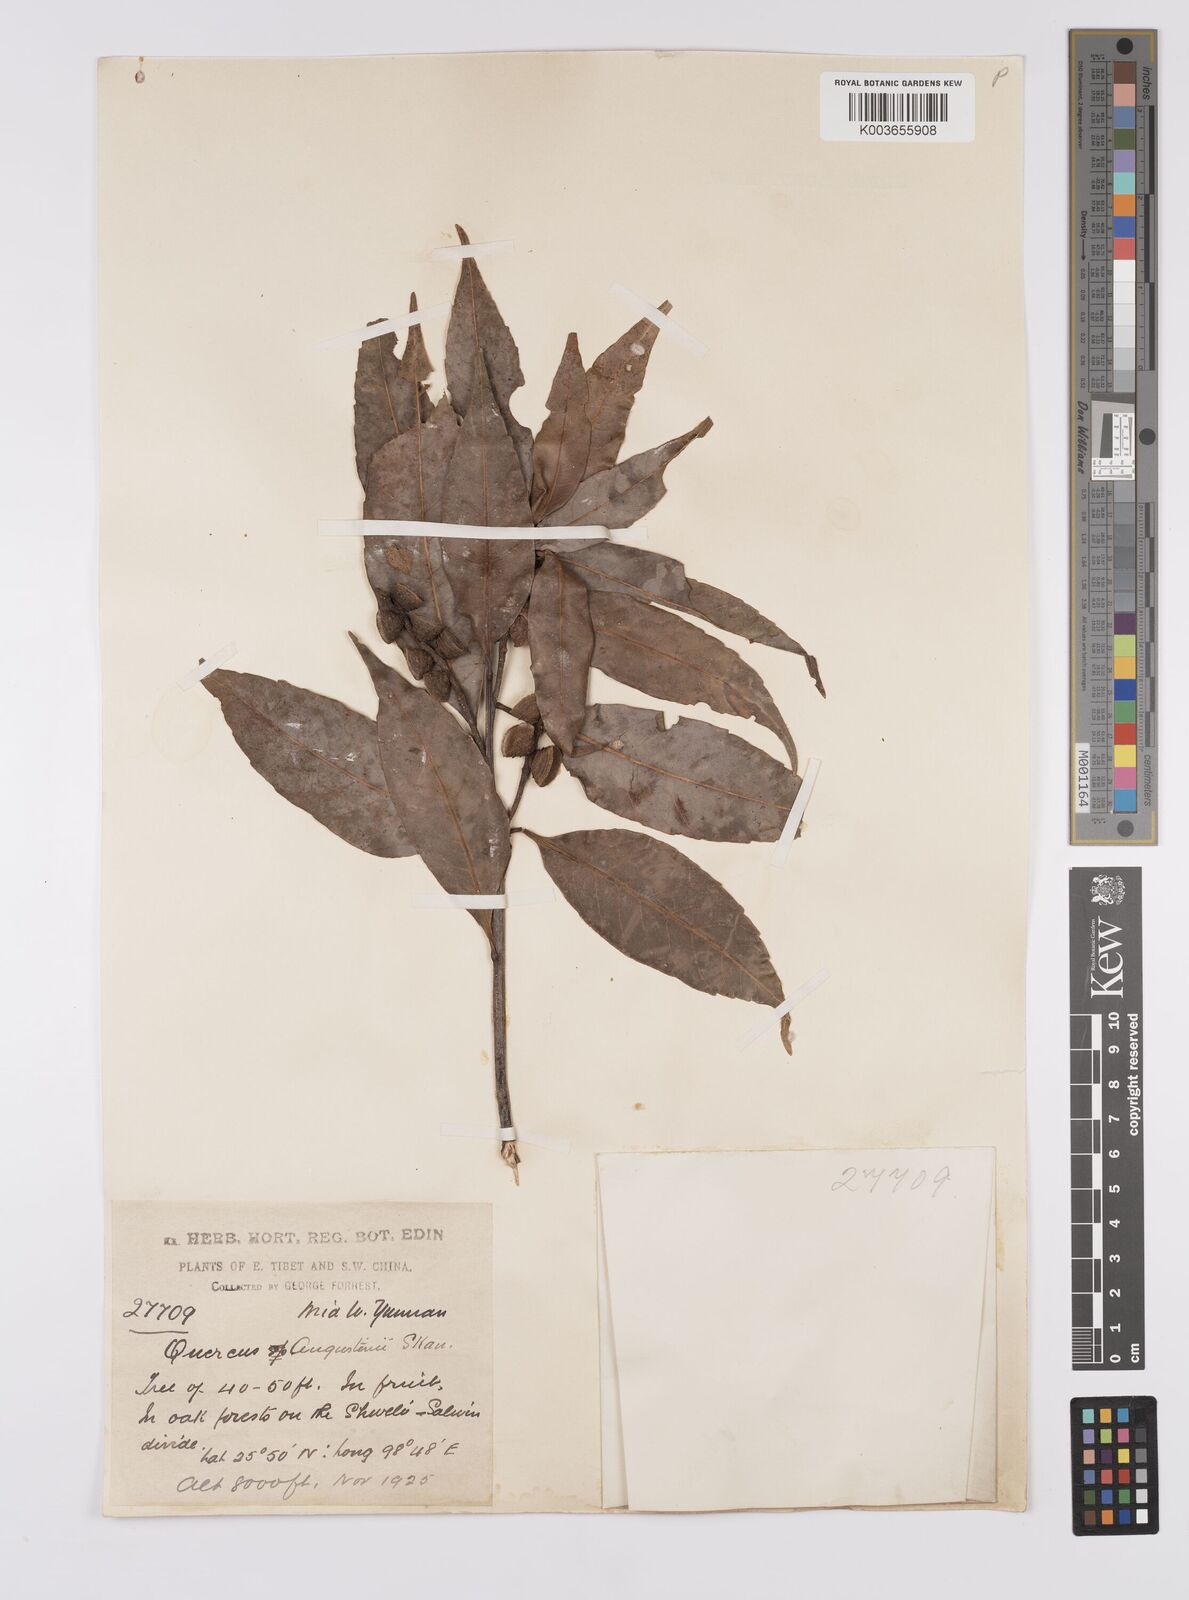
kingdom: Plantae
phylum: Tracheophyta
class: Magnoliopsida
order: Fagales
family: Fagaceae
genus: Quercus
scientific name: Quercus augustini
